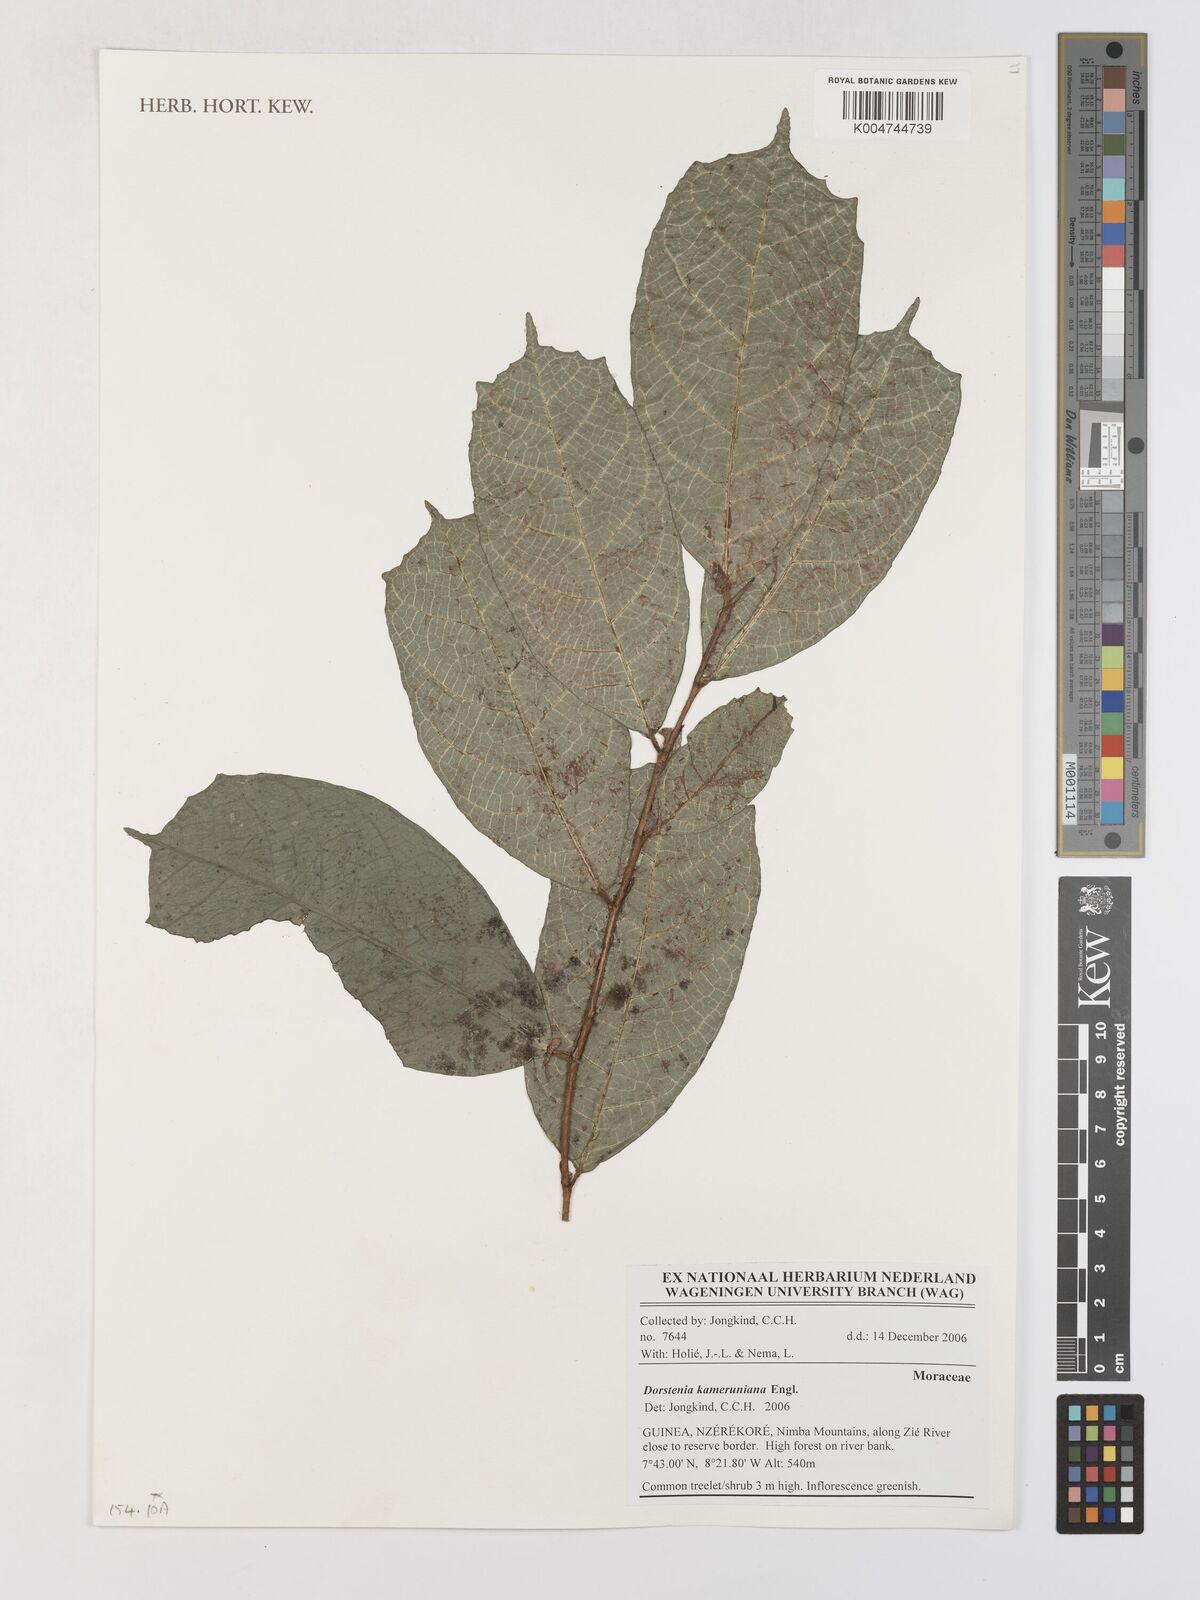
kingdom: Plantae
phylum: Tracheophyta
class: Magnoliopsida
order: Rosales
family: Moraceae
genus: Dorstenia
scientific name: Dorstenia kameruniana
